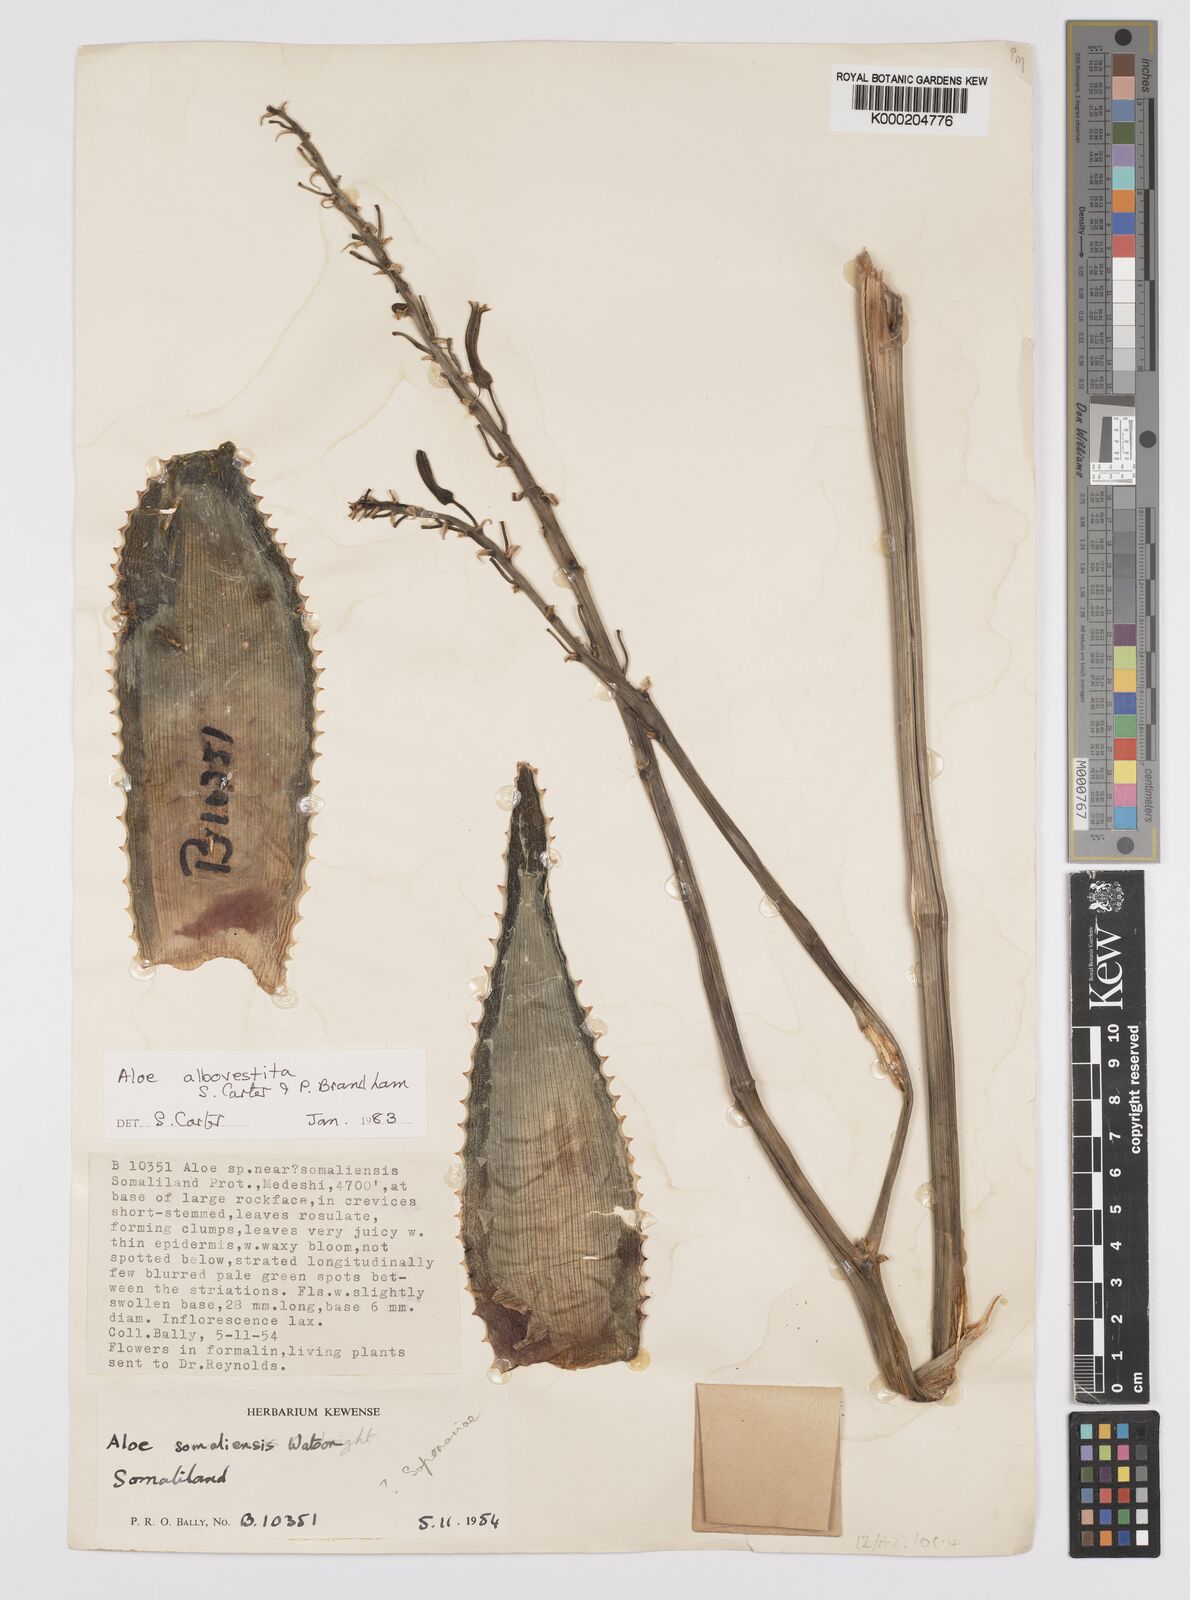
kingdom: Plantae
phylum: Tracheophyta
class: Liliopsida
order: Asparagales
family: Asphodelaceae
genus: Aloe
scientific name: Aloe albovestita
